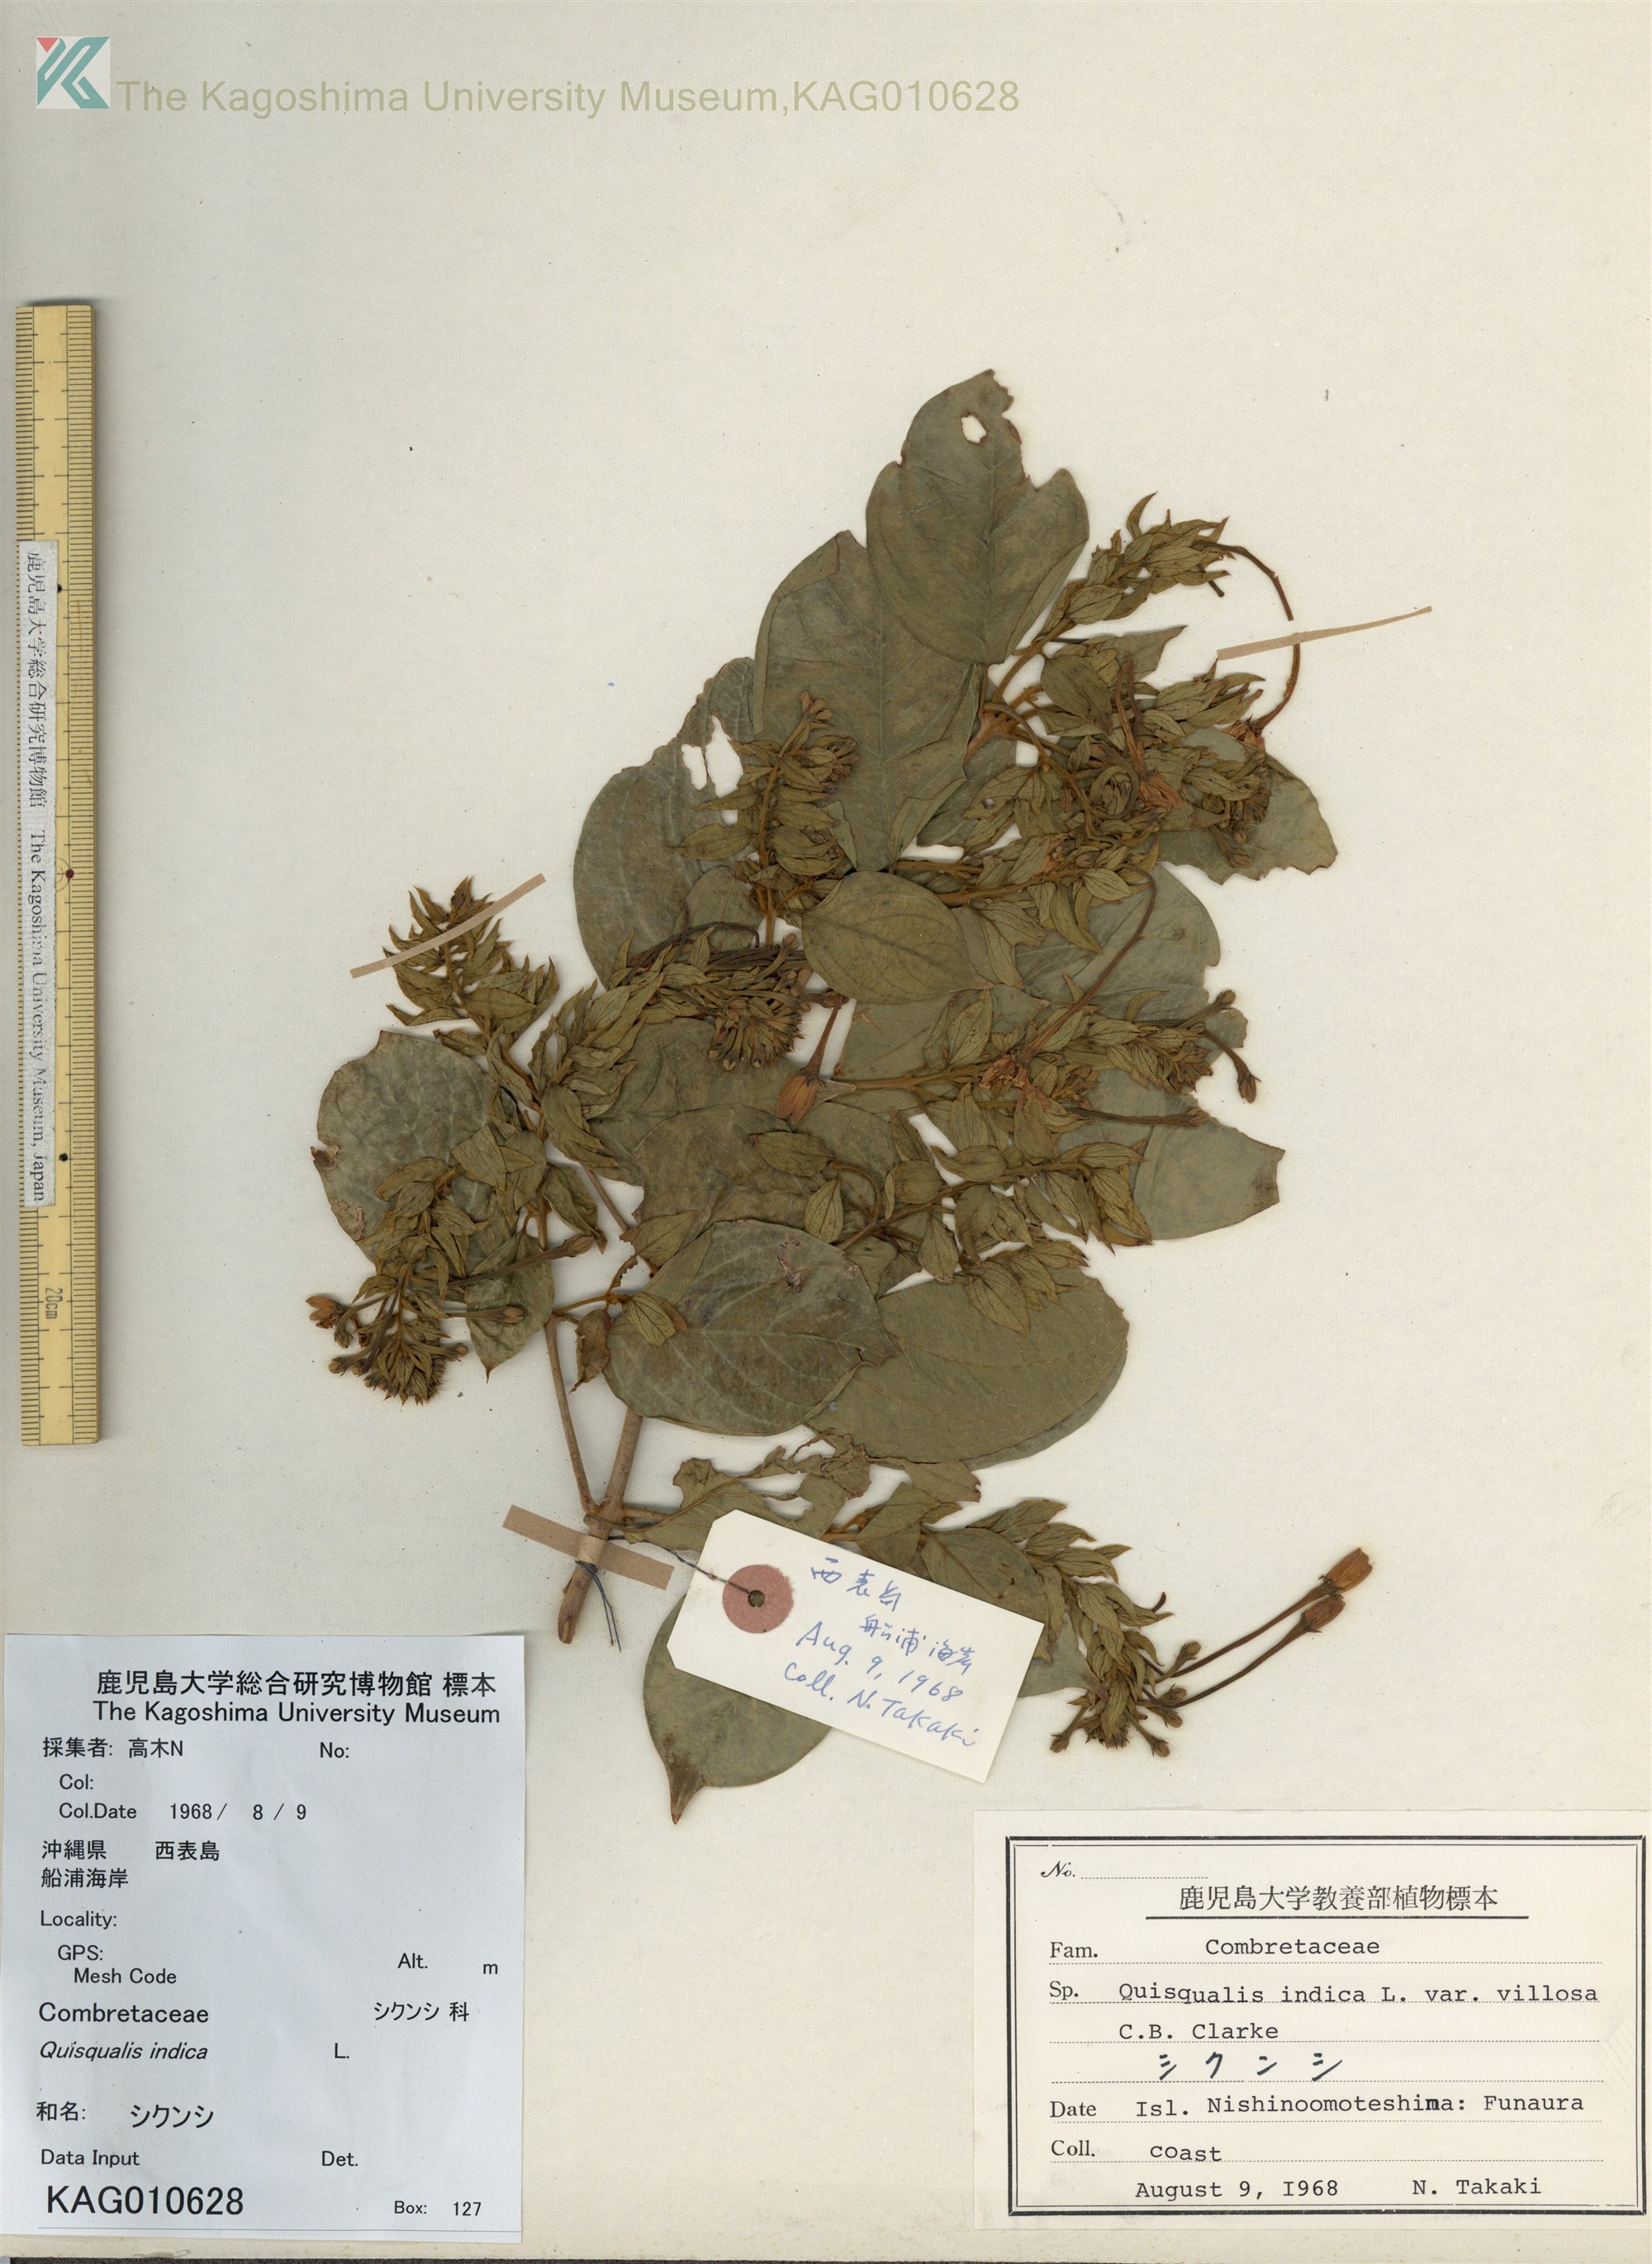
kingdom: Plantae
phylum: Tracheophyta
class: Magnoliopsida
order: Myrtales
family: Combretaceae
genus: Combretum
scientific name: Combretum indicum
